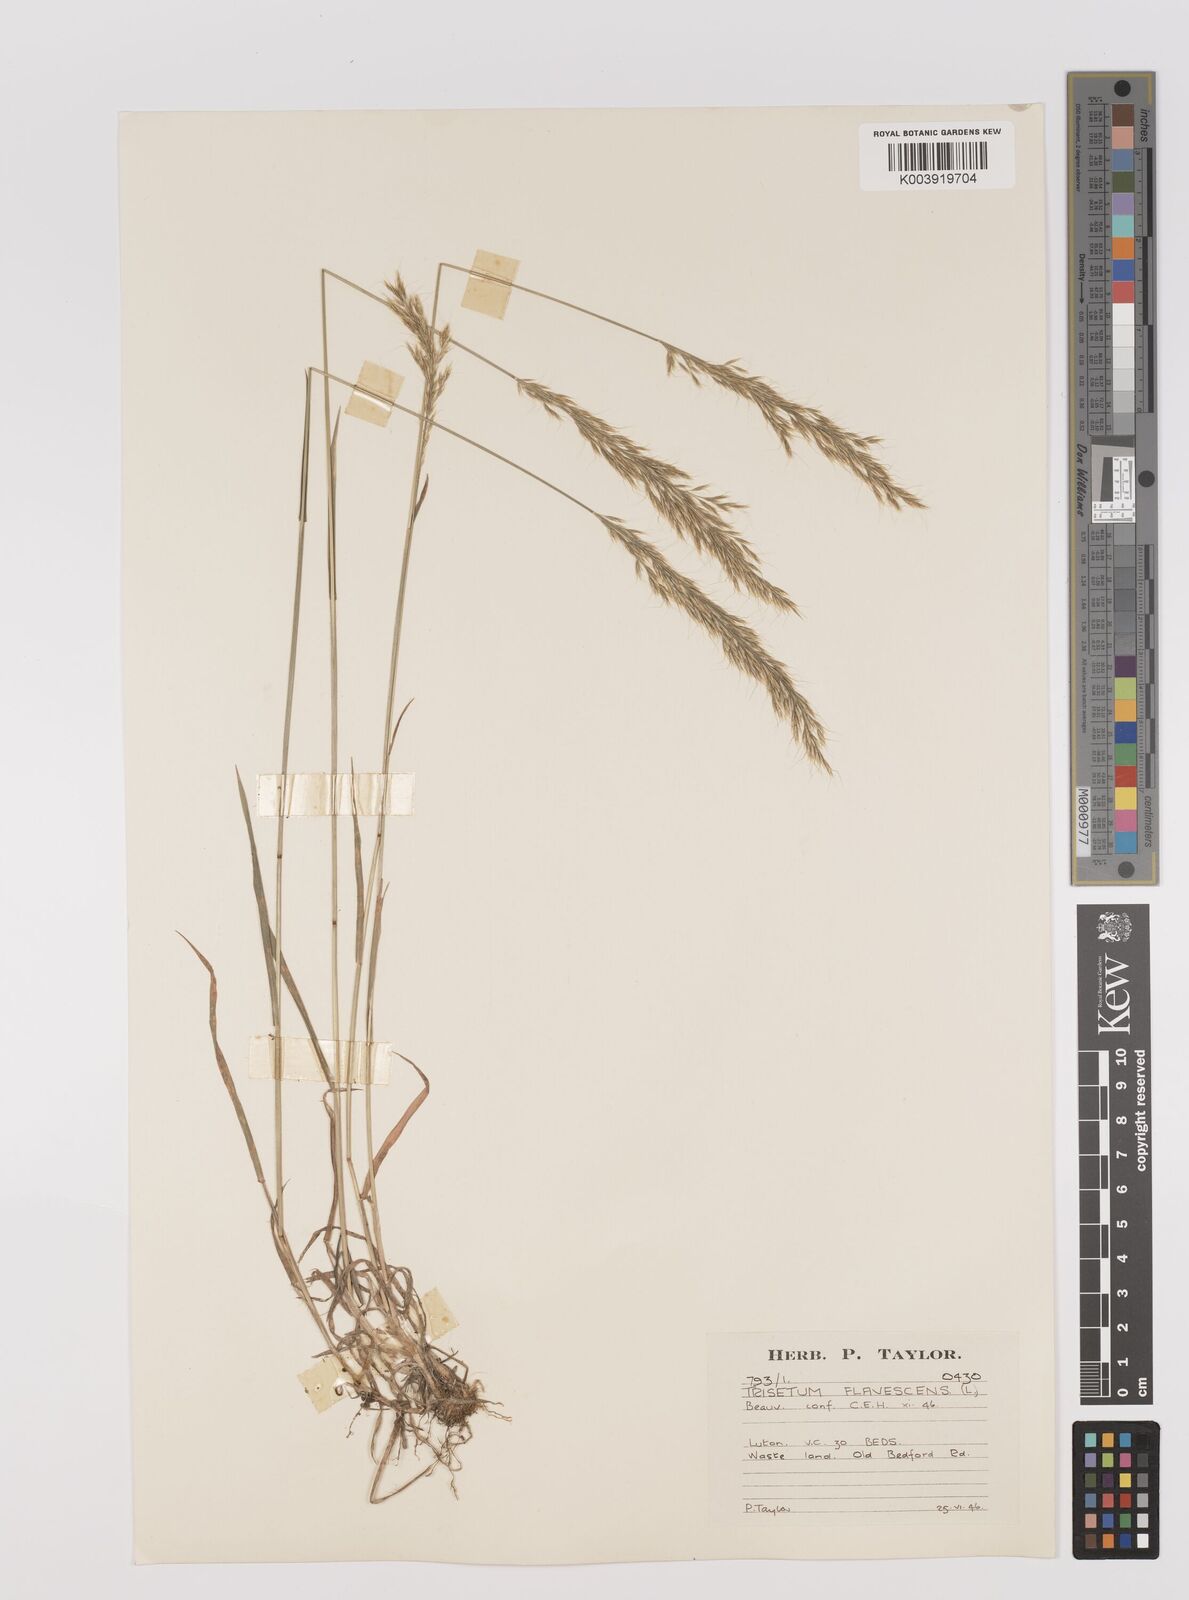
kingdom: Plantae
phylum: Tracheophyta
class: Liliopsida
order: Poales
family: Poaceae
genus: Trisetum
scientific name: Trisetum flavescens
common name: Yellow oat-grass
